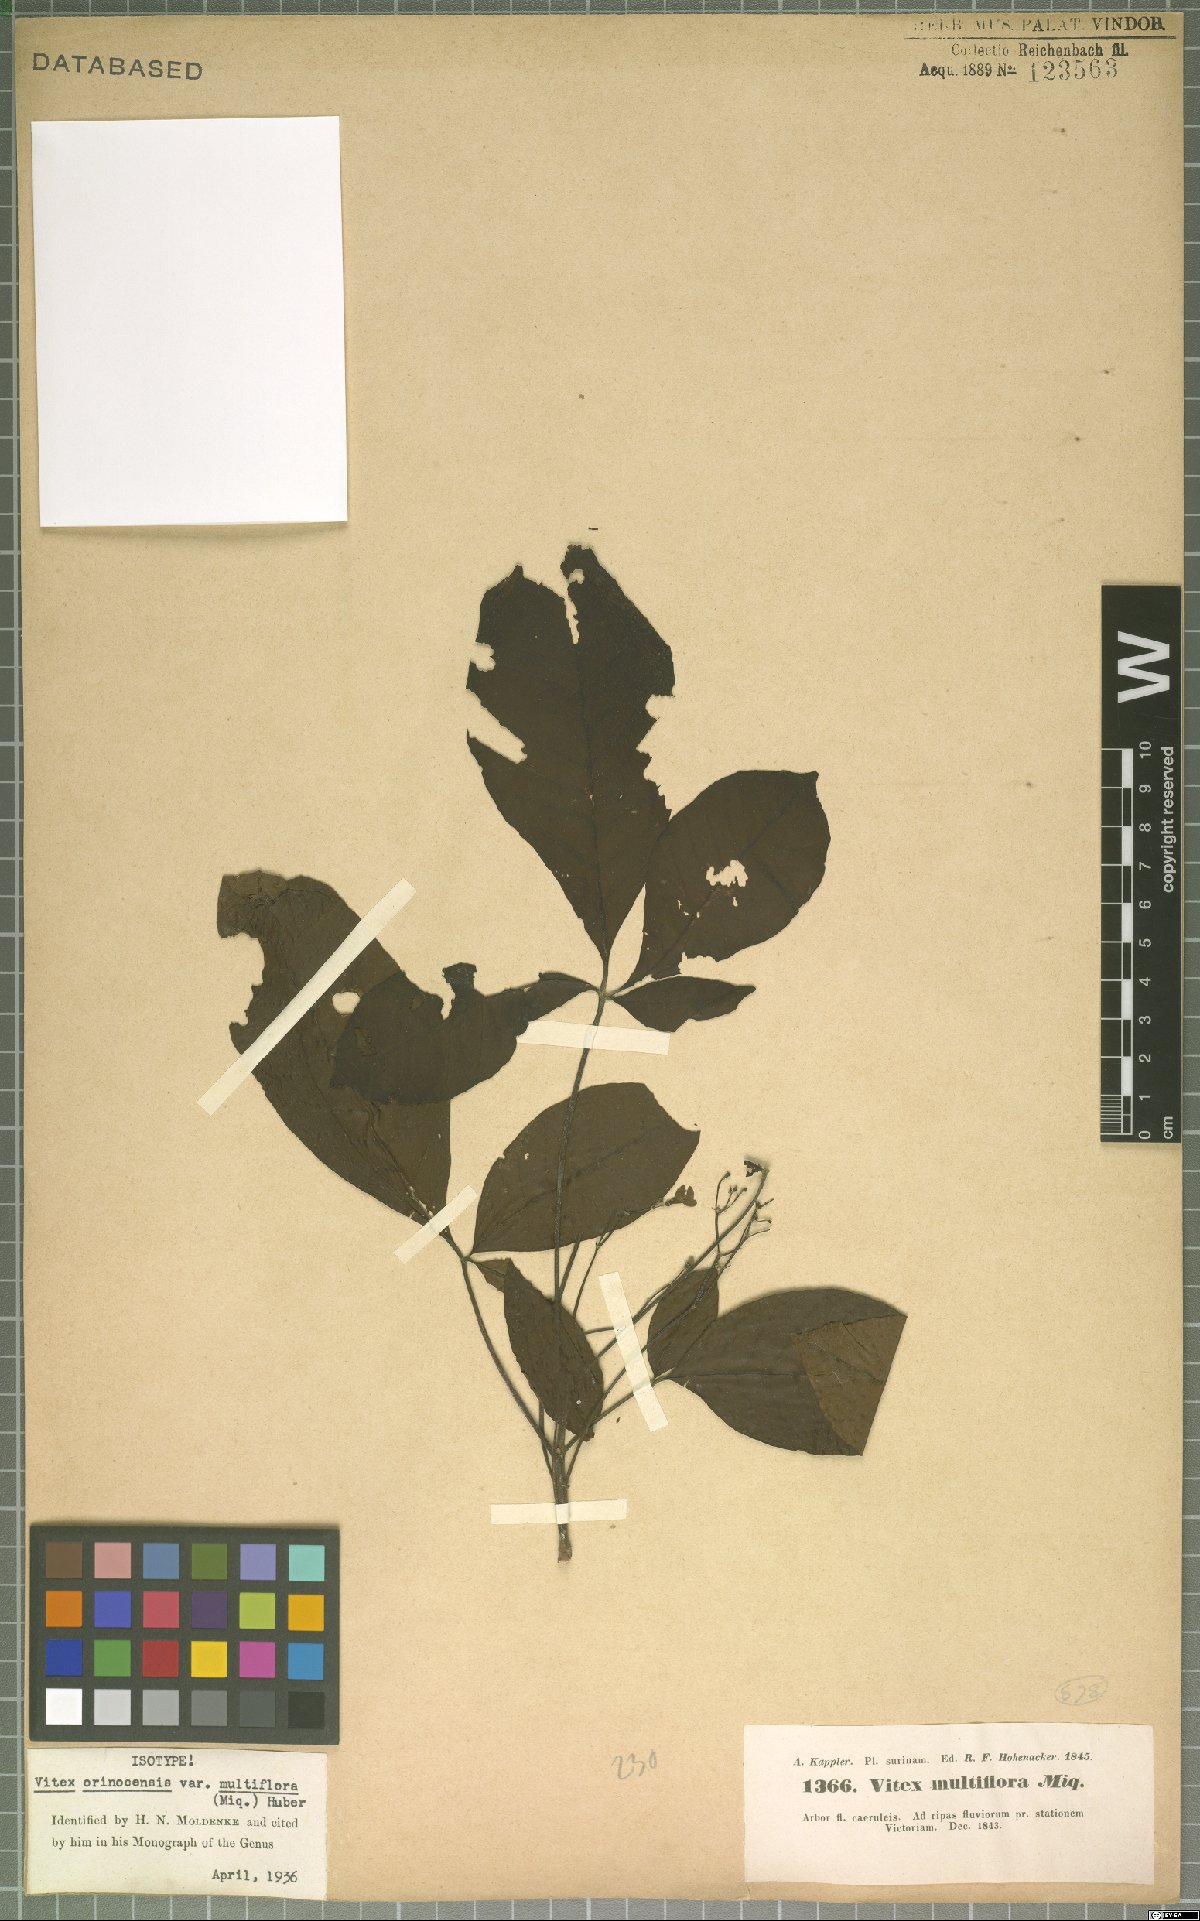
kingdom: Plantae
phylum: Tracheophyta
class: Magnoliopsida
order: Lamiales
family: Lamiaceae
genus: Vitex
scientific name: Vitex orinocensis
